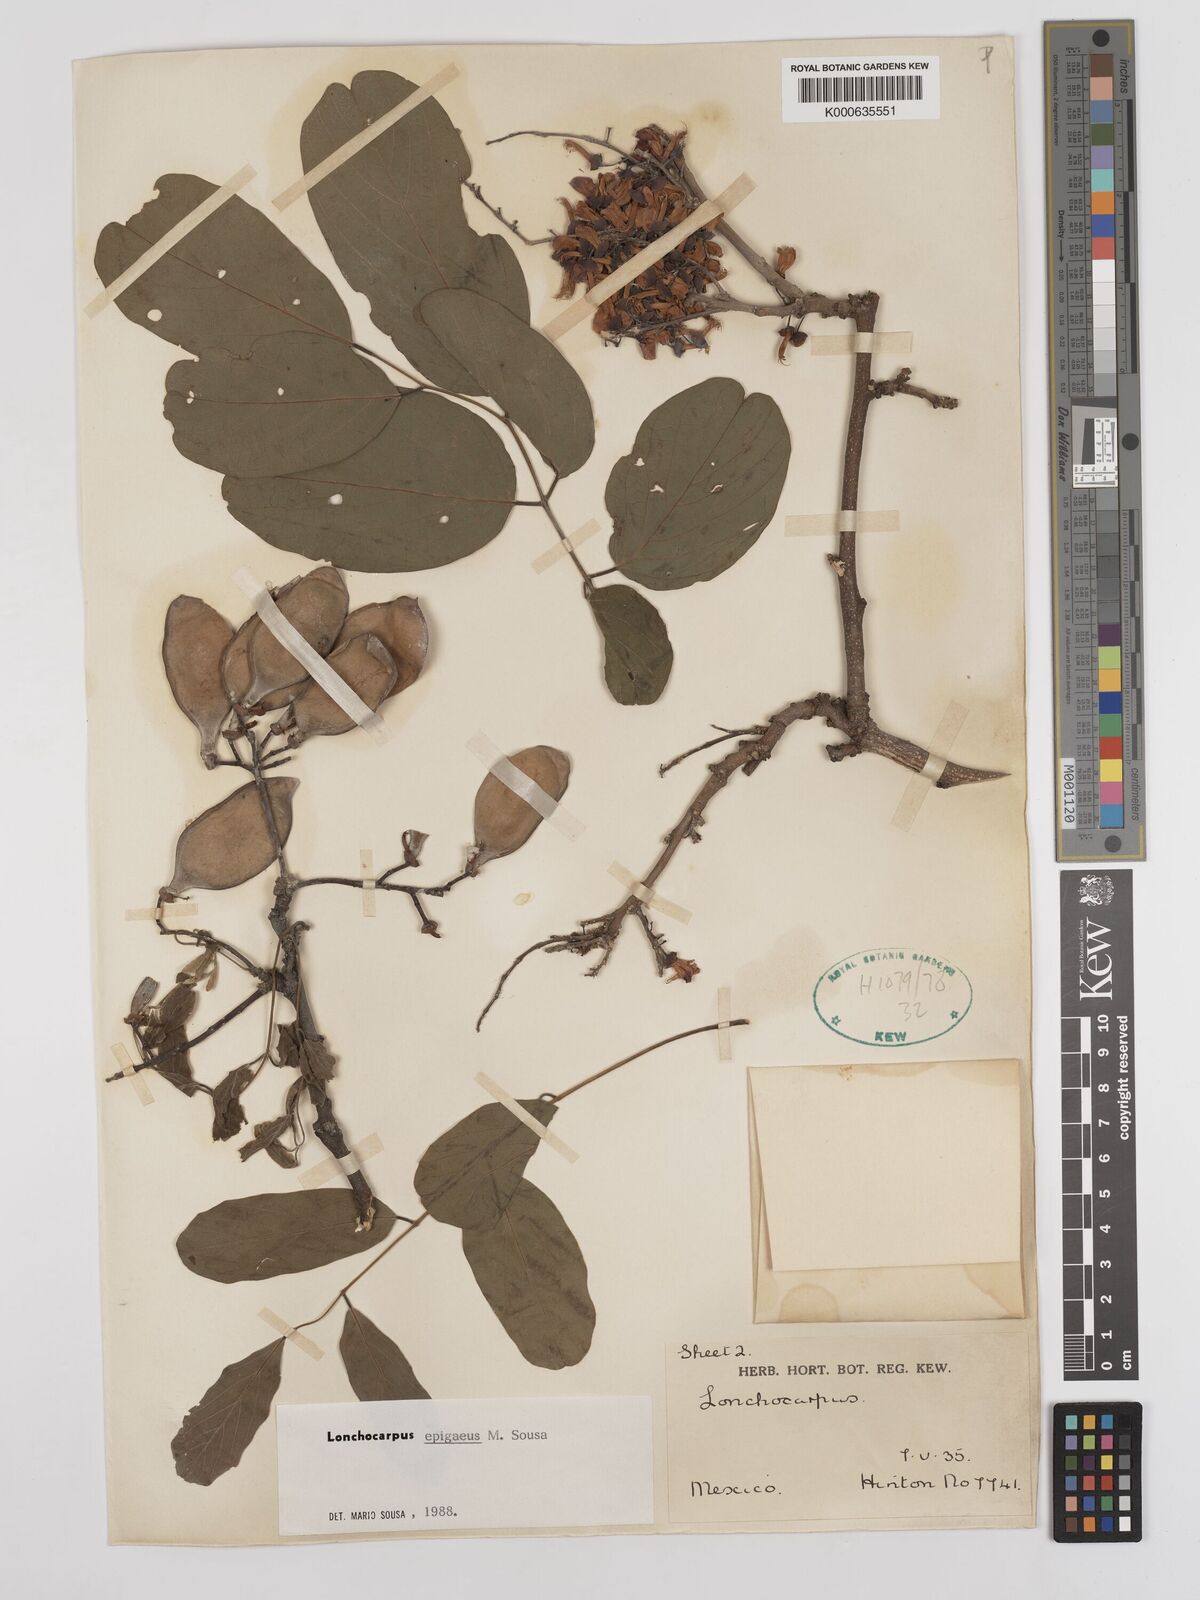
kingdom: Plantae
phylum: Tracheophyta
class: Magnoliopsida
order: Fabales
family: Fabaceae
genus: Lonchocarpus
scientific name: Lonchocarpus epigaeus
